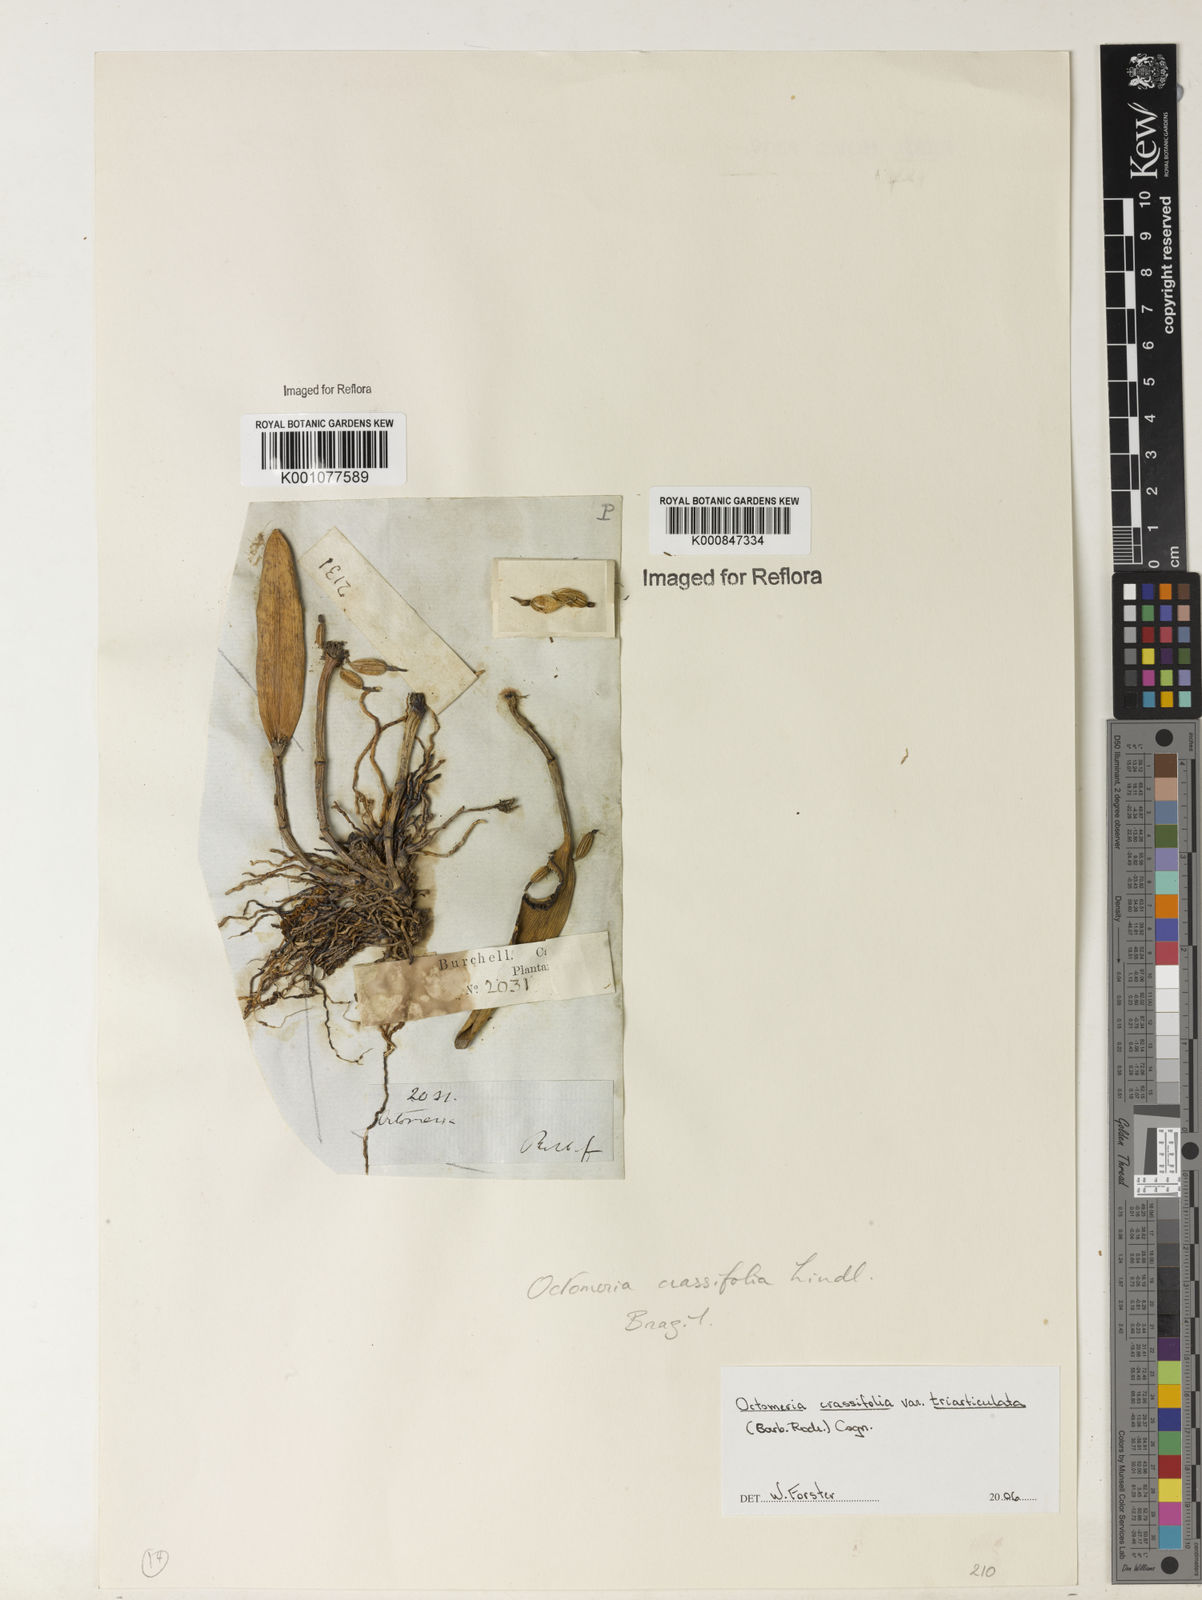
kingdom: Plantae
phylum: Tracheophyta
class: Liliopsida
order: Asparagales
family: Orchidaceae
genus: Octomeria
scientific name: Octomeria crassifolia
